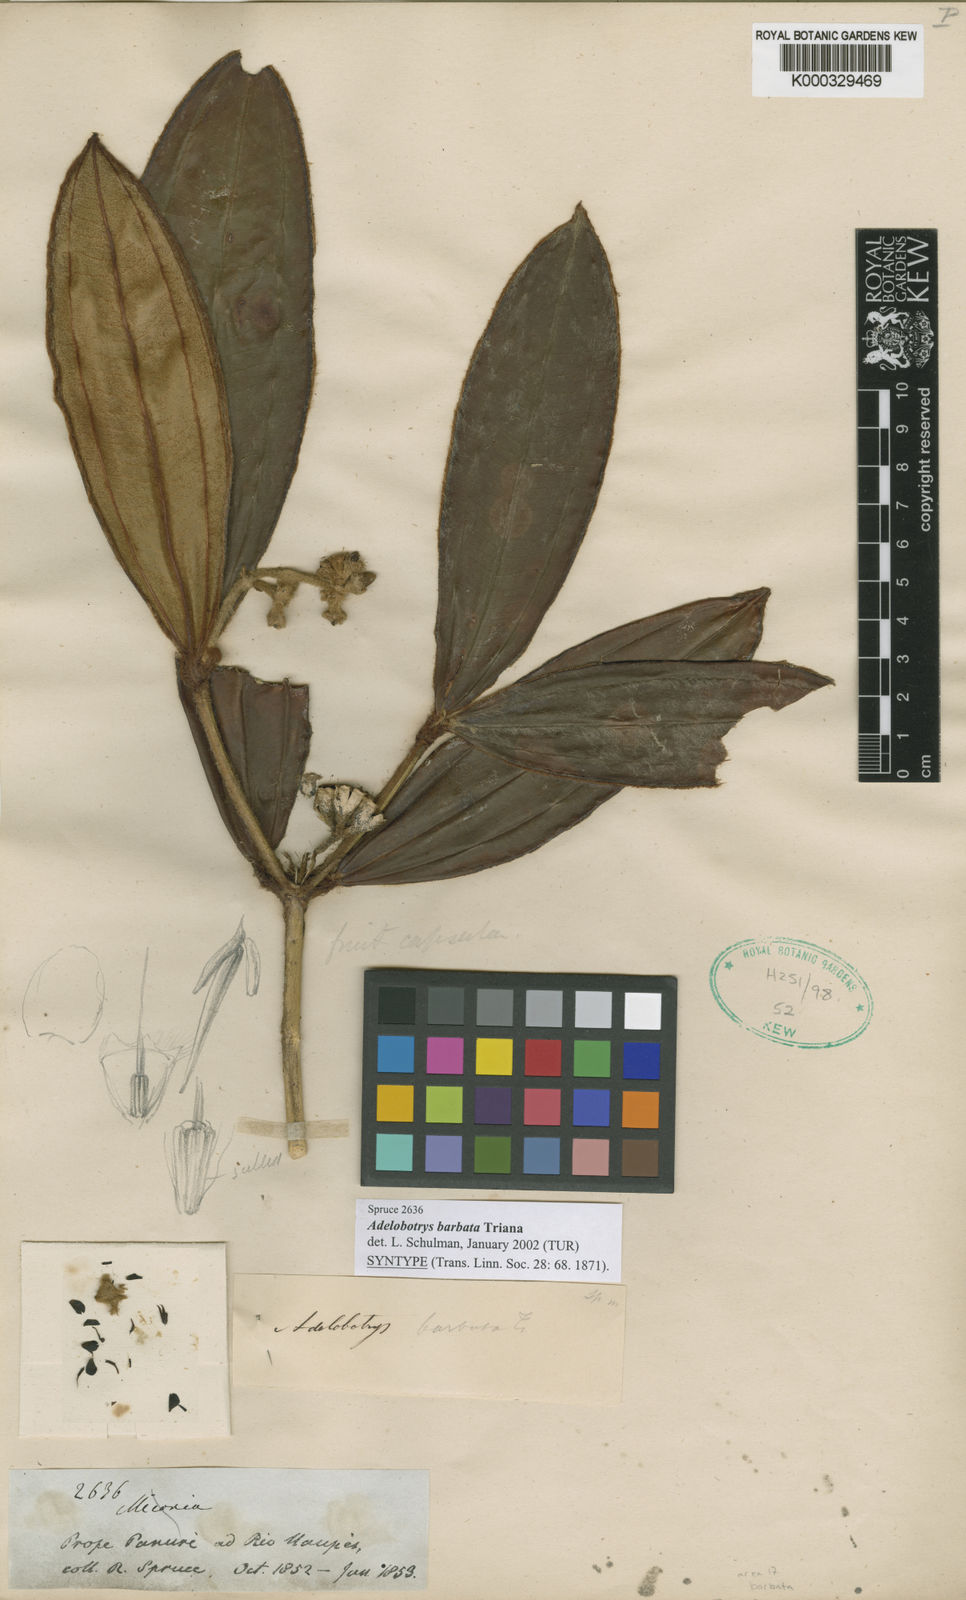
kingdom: Plantae
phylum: Tracheophyta
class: Magnoliopsida
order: Myrtales
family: Melastomataceae
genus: Adelobotrys
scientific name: Adelobotrys barbatus
